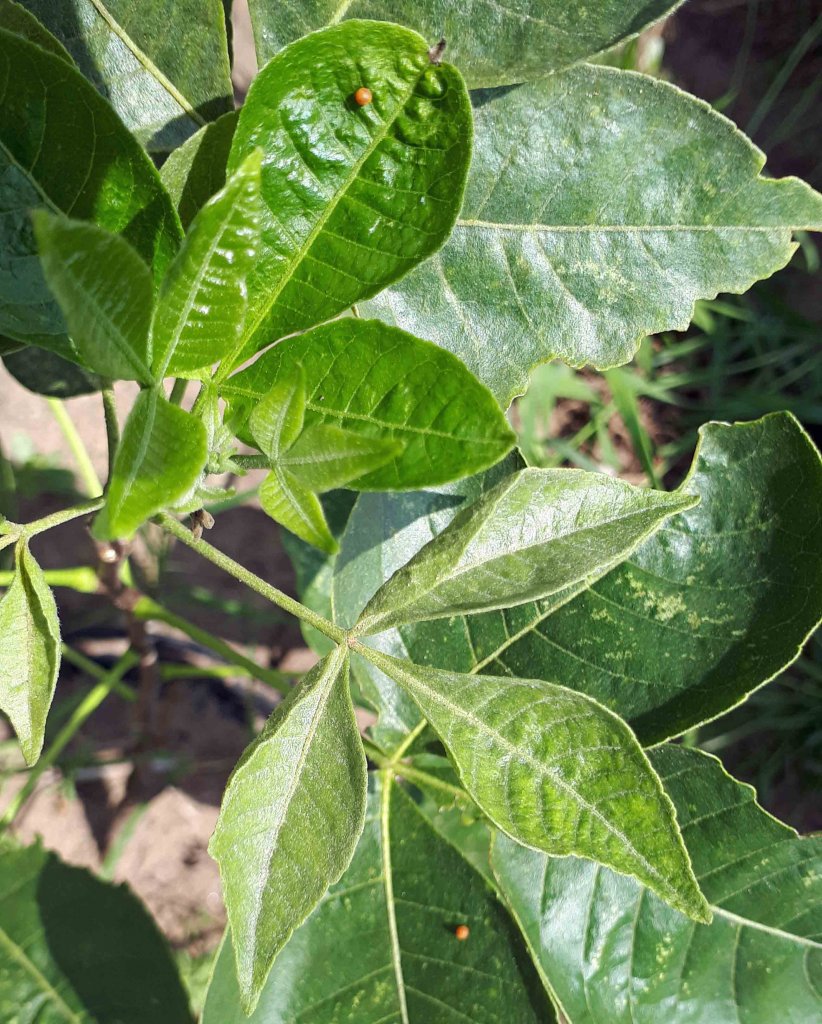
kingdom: Animalia
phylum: Arthropoda
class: Insecta
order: Lepidoptera
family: Papilionidae
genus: Papilio
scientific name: Papilio cresphontes
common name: Eastern Giant Swallowtail
